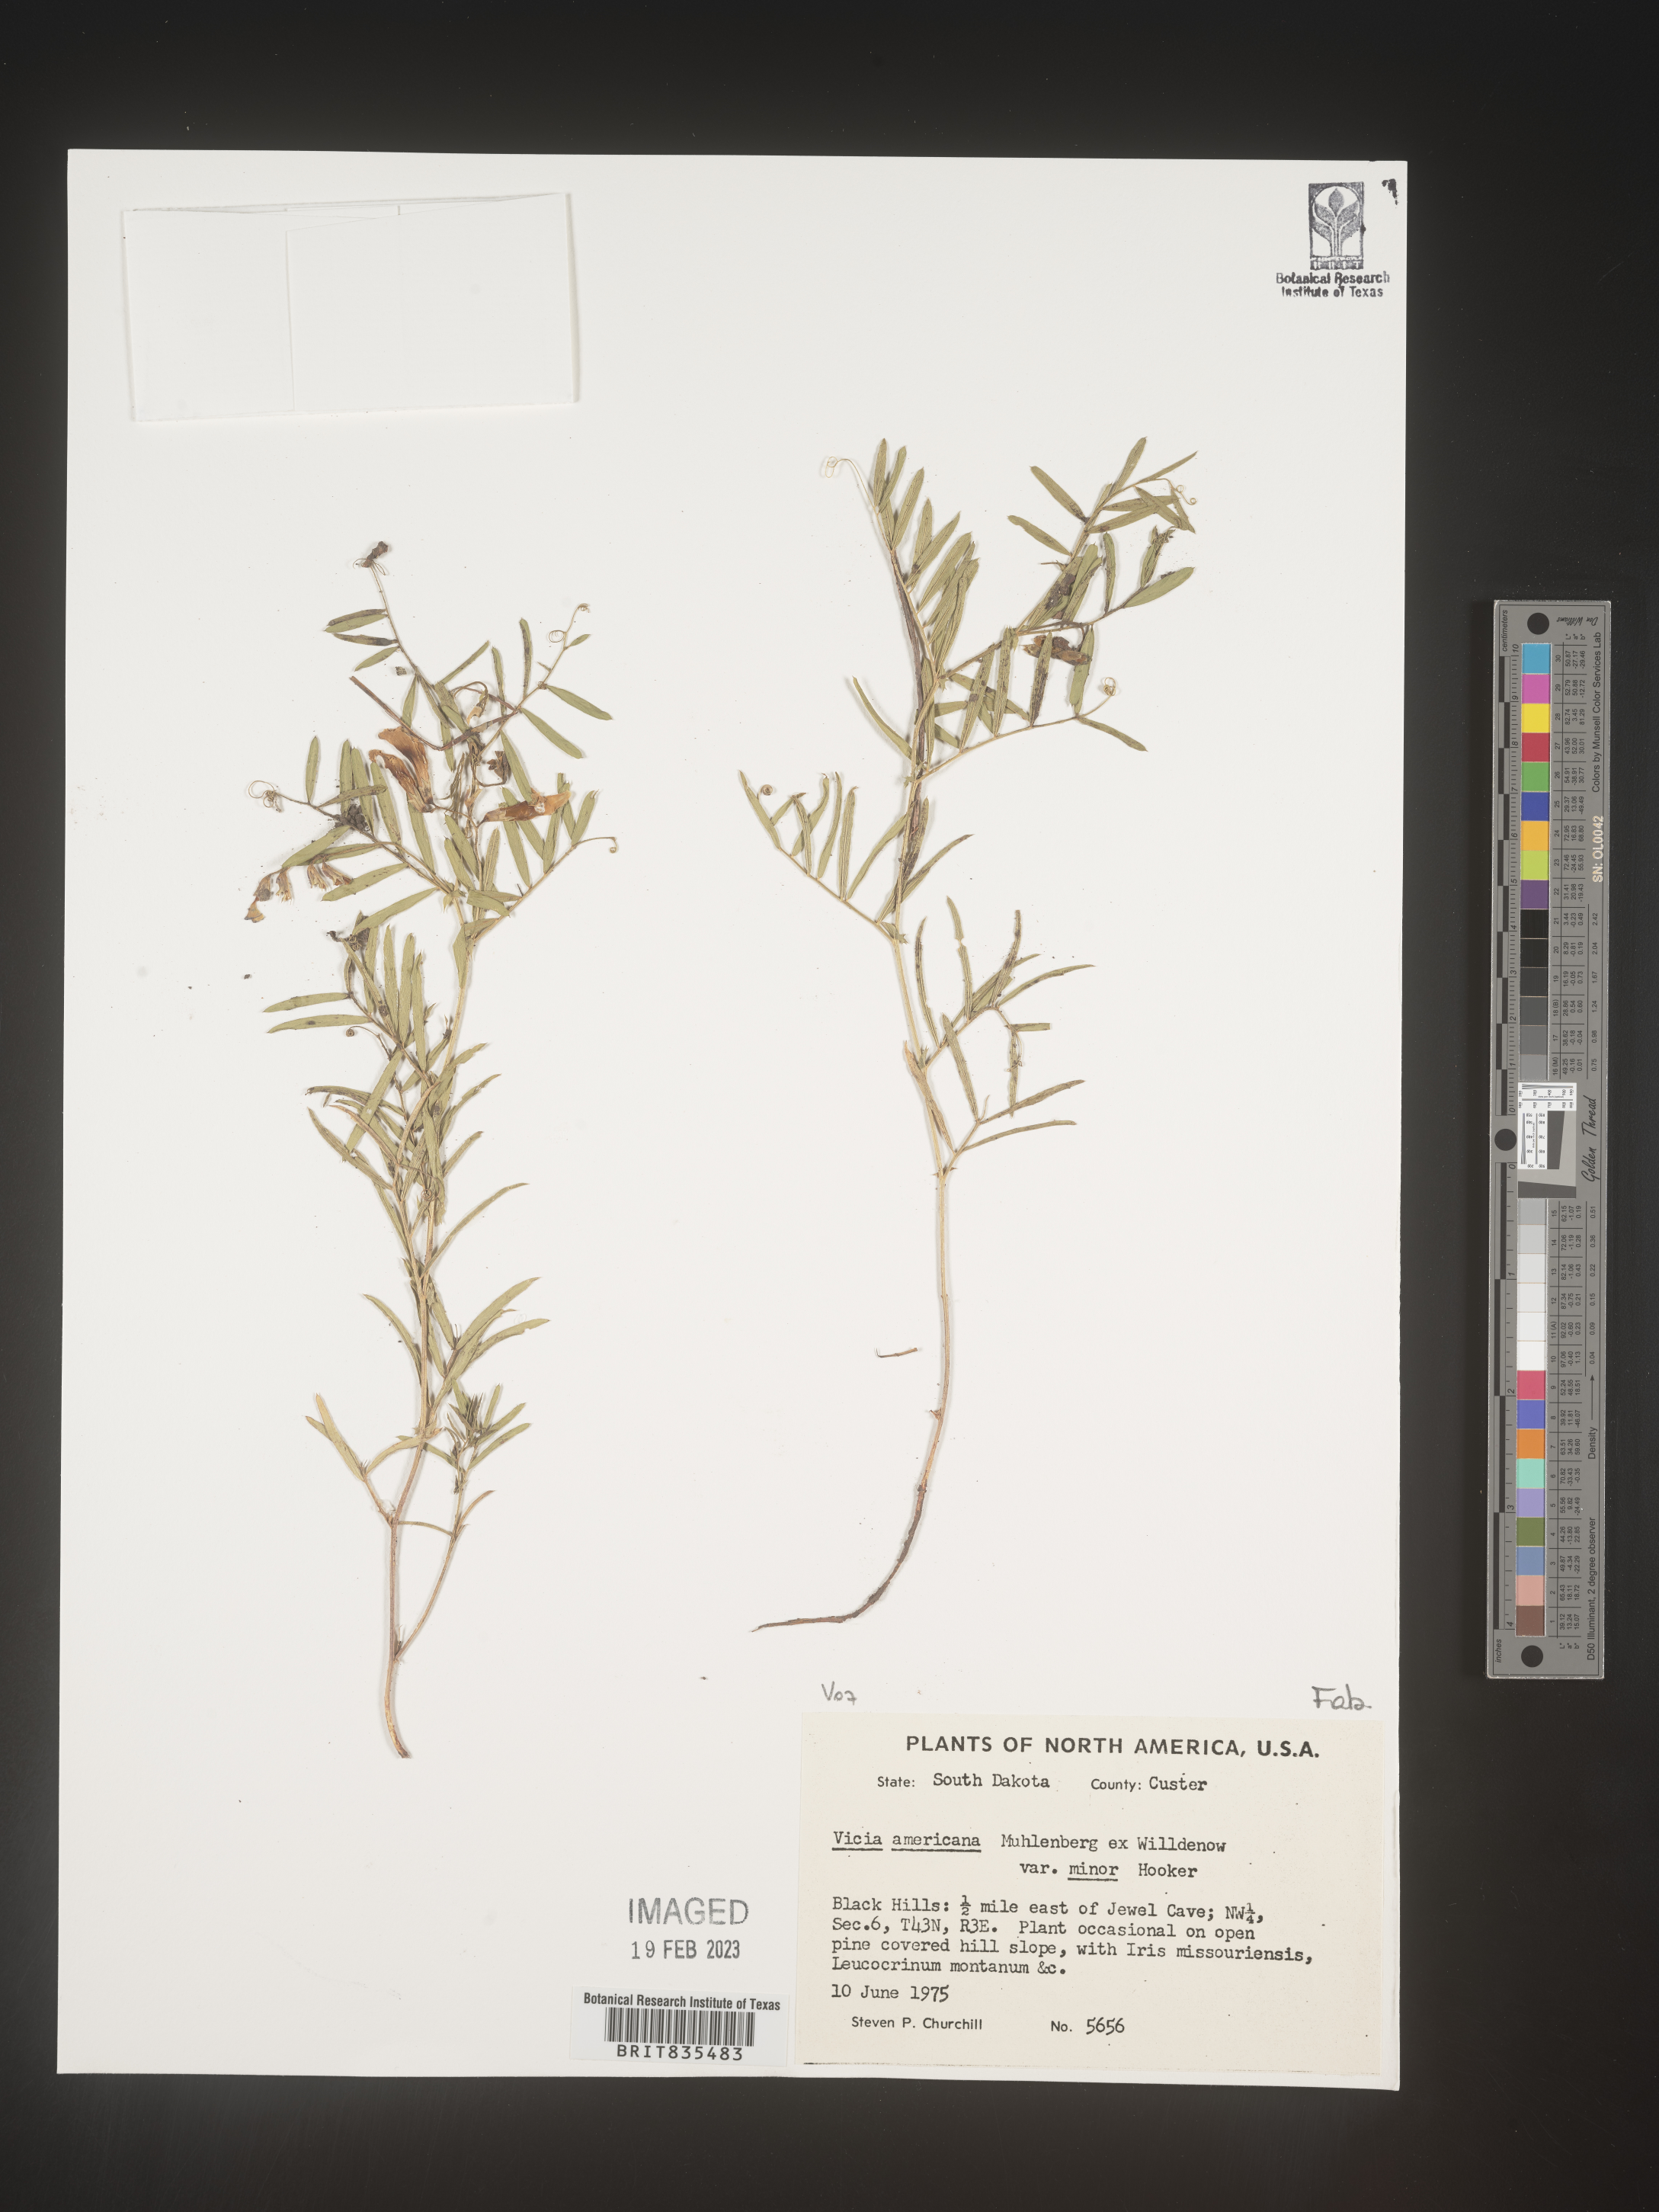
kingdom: Plantae
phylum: Tracheophyta
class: Magnoliopsida
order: Fabales
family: Fabaceae
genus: Vicia
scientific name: Vicia americana
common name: American vetch
